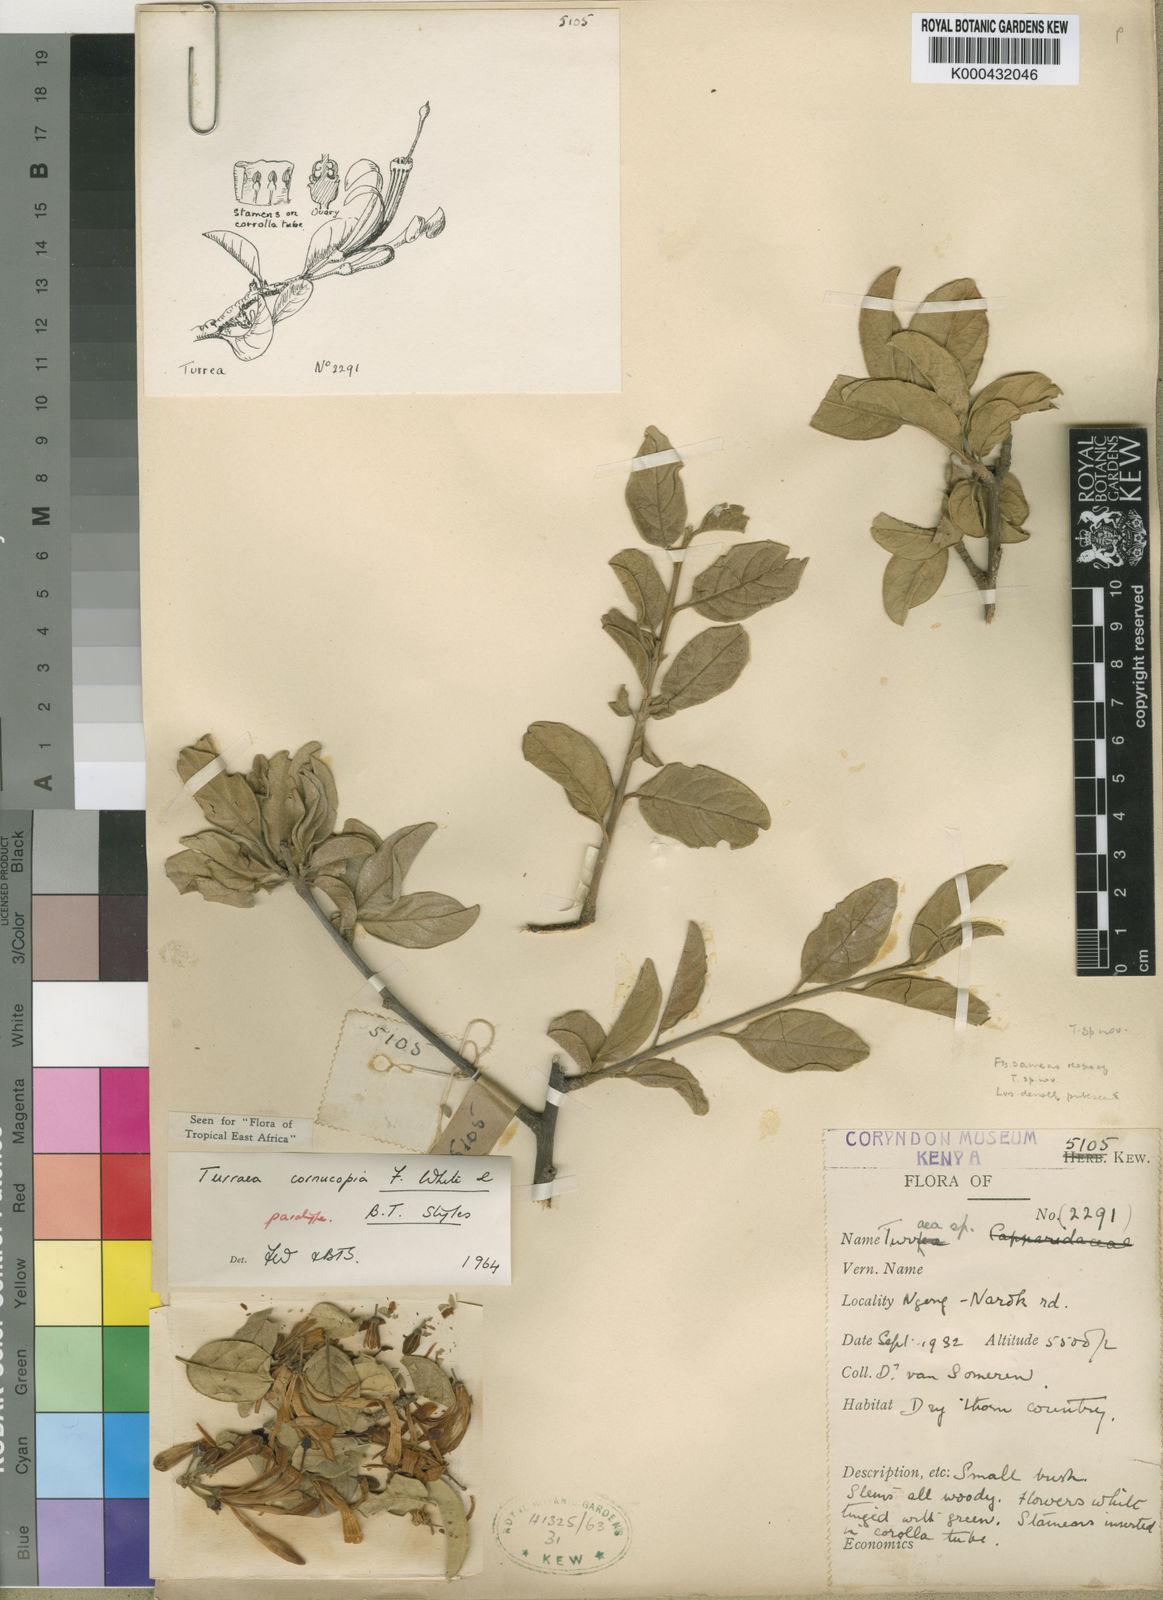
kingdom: Plantae
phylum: Tracheophyta
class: Magnoliopsida
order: Sapindales
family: Meliaceae
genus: Turraea
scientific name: Turraea cornucopia
